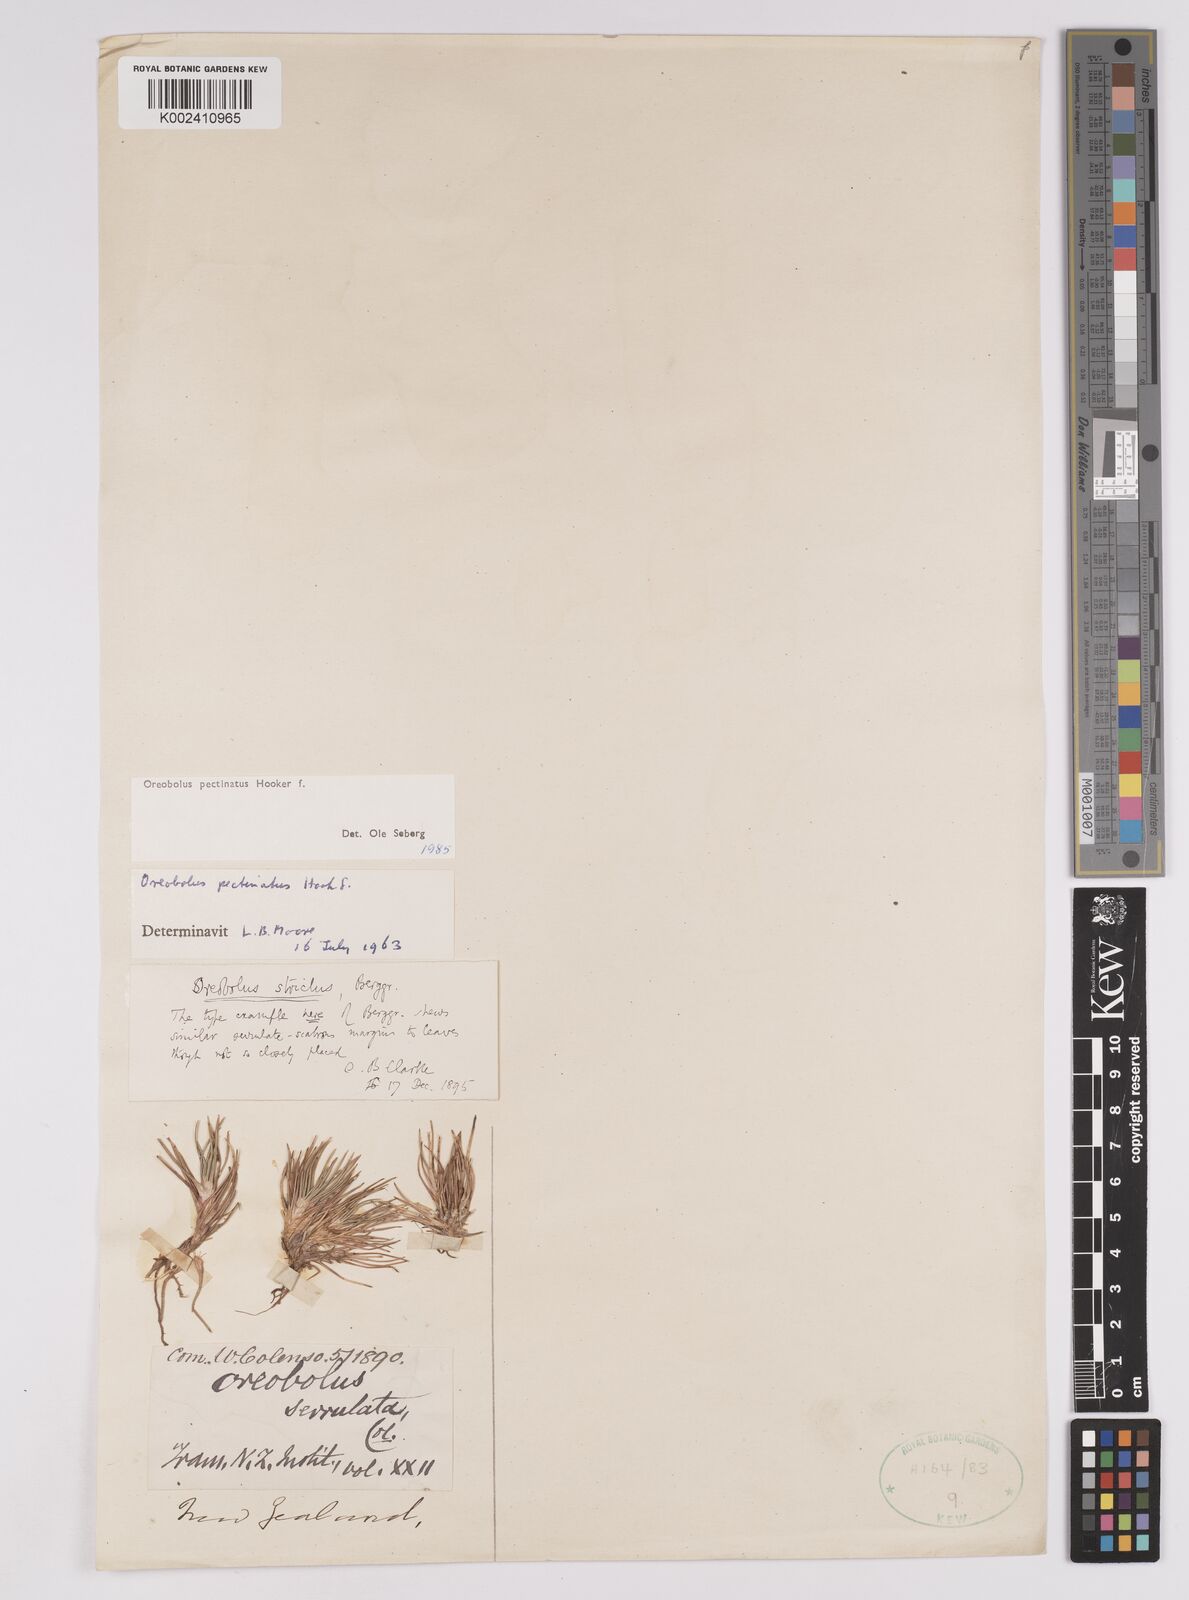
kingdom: Plantae
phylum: Tracheophyta
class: Liliopsida
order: Poales
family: Cyperaceae
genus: Oreobolus
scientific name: Oreobolus pectinatus
